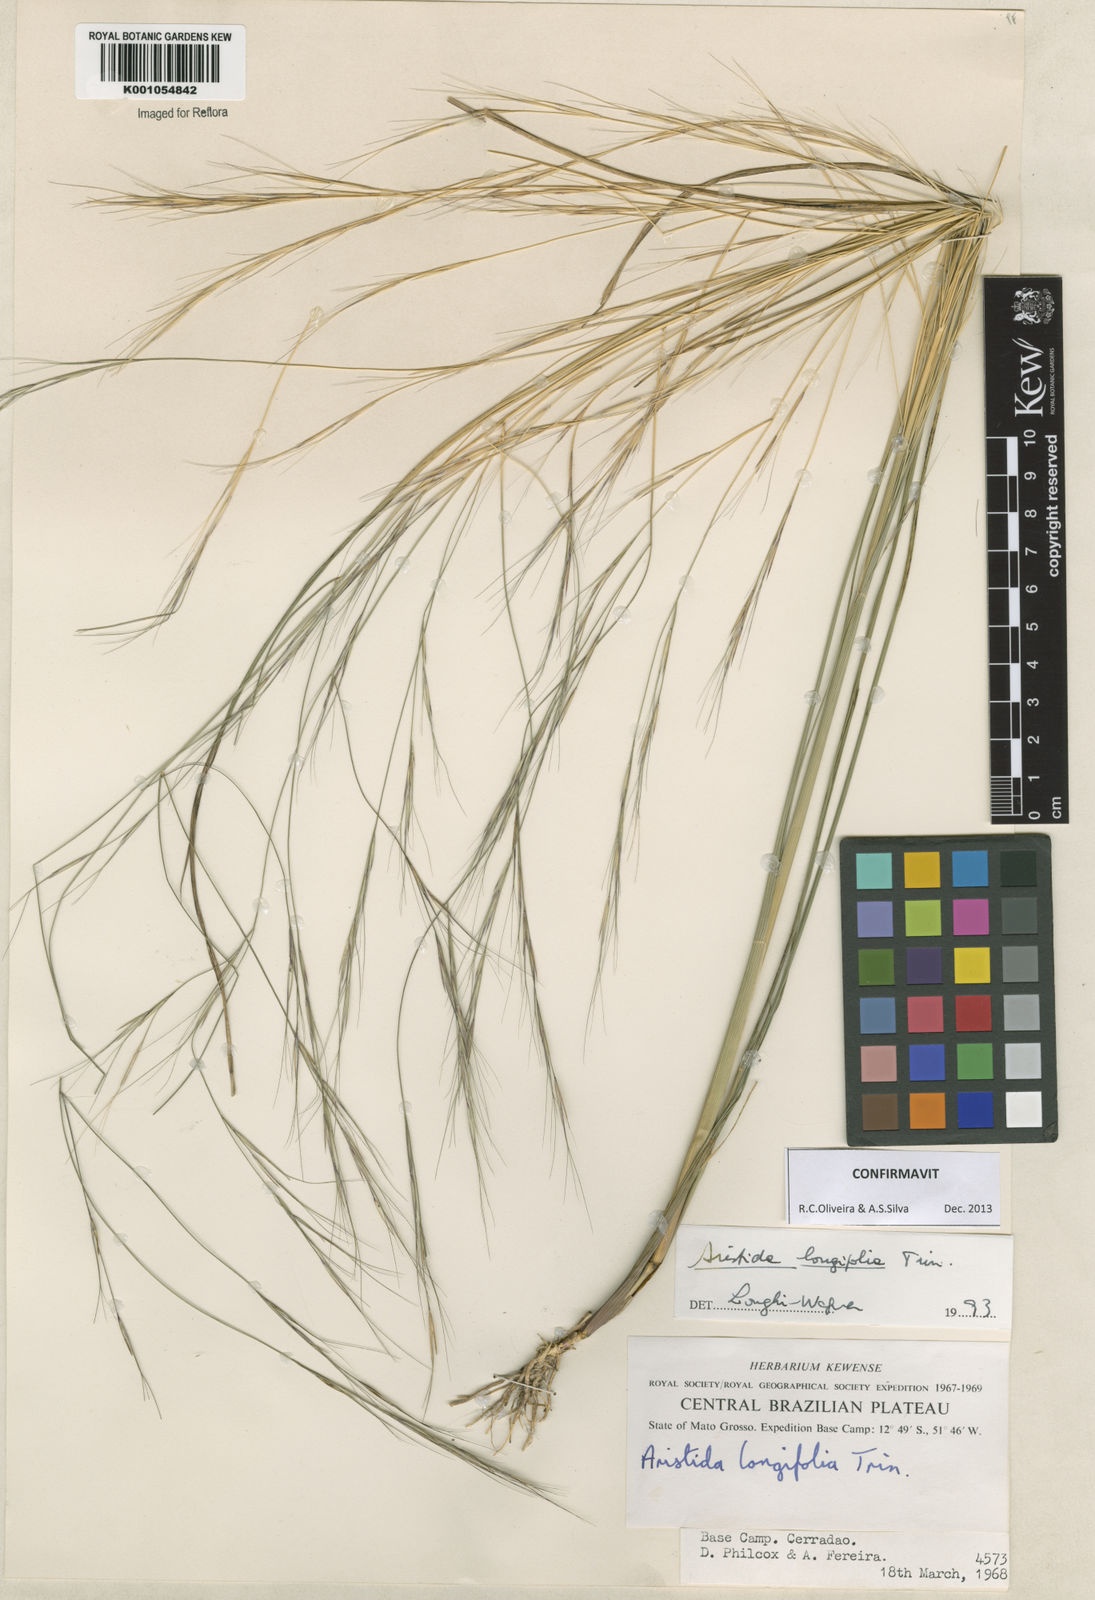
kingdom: Plantae
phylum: Tracheophyta
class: Liliopsida
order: Poales
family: Poaceae
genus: Aristida
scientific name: Aristida longifolia
